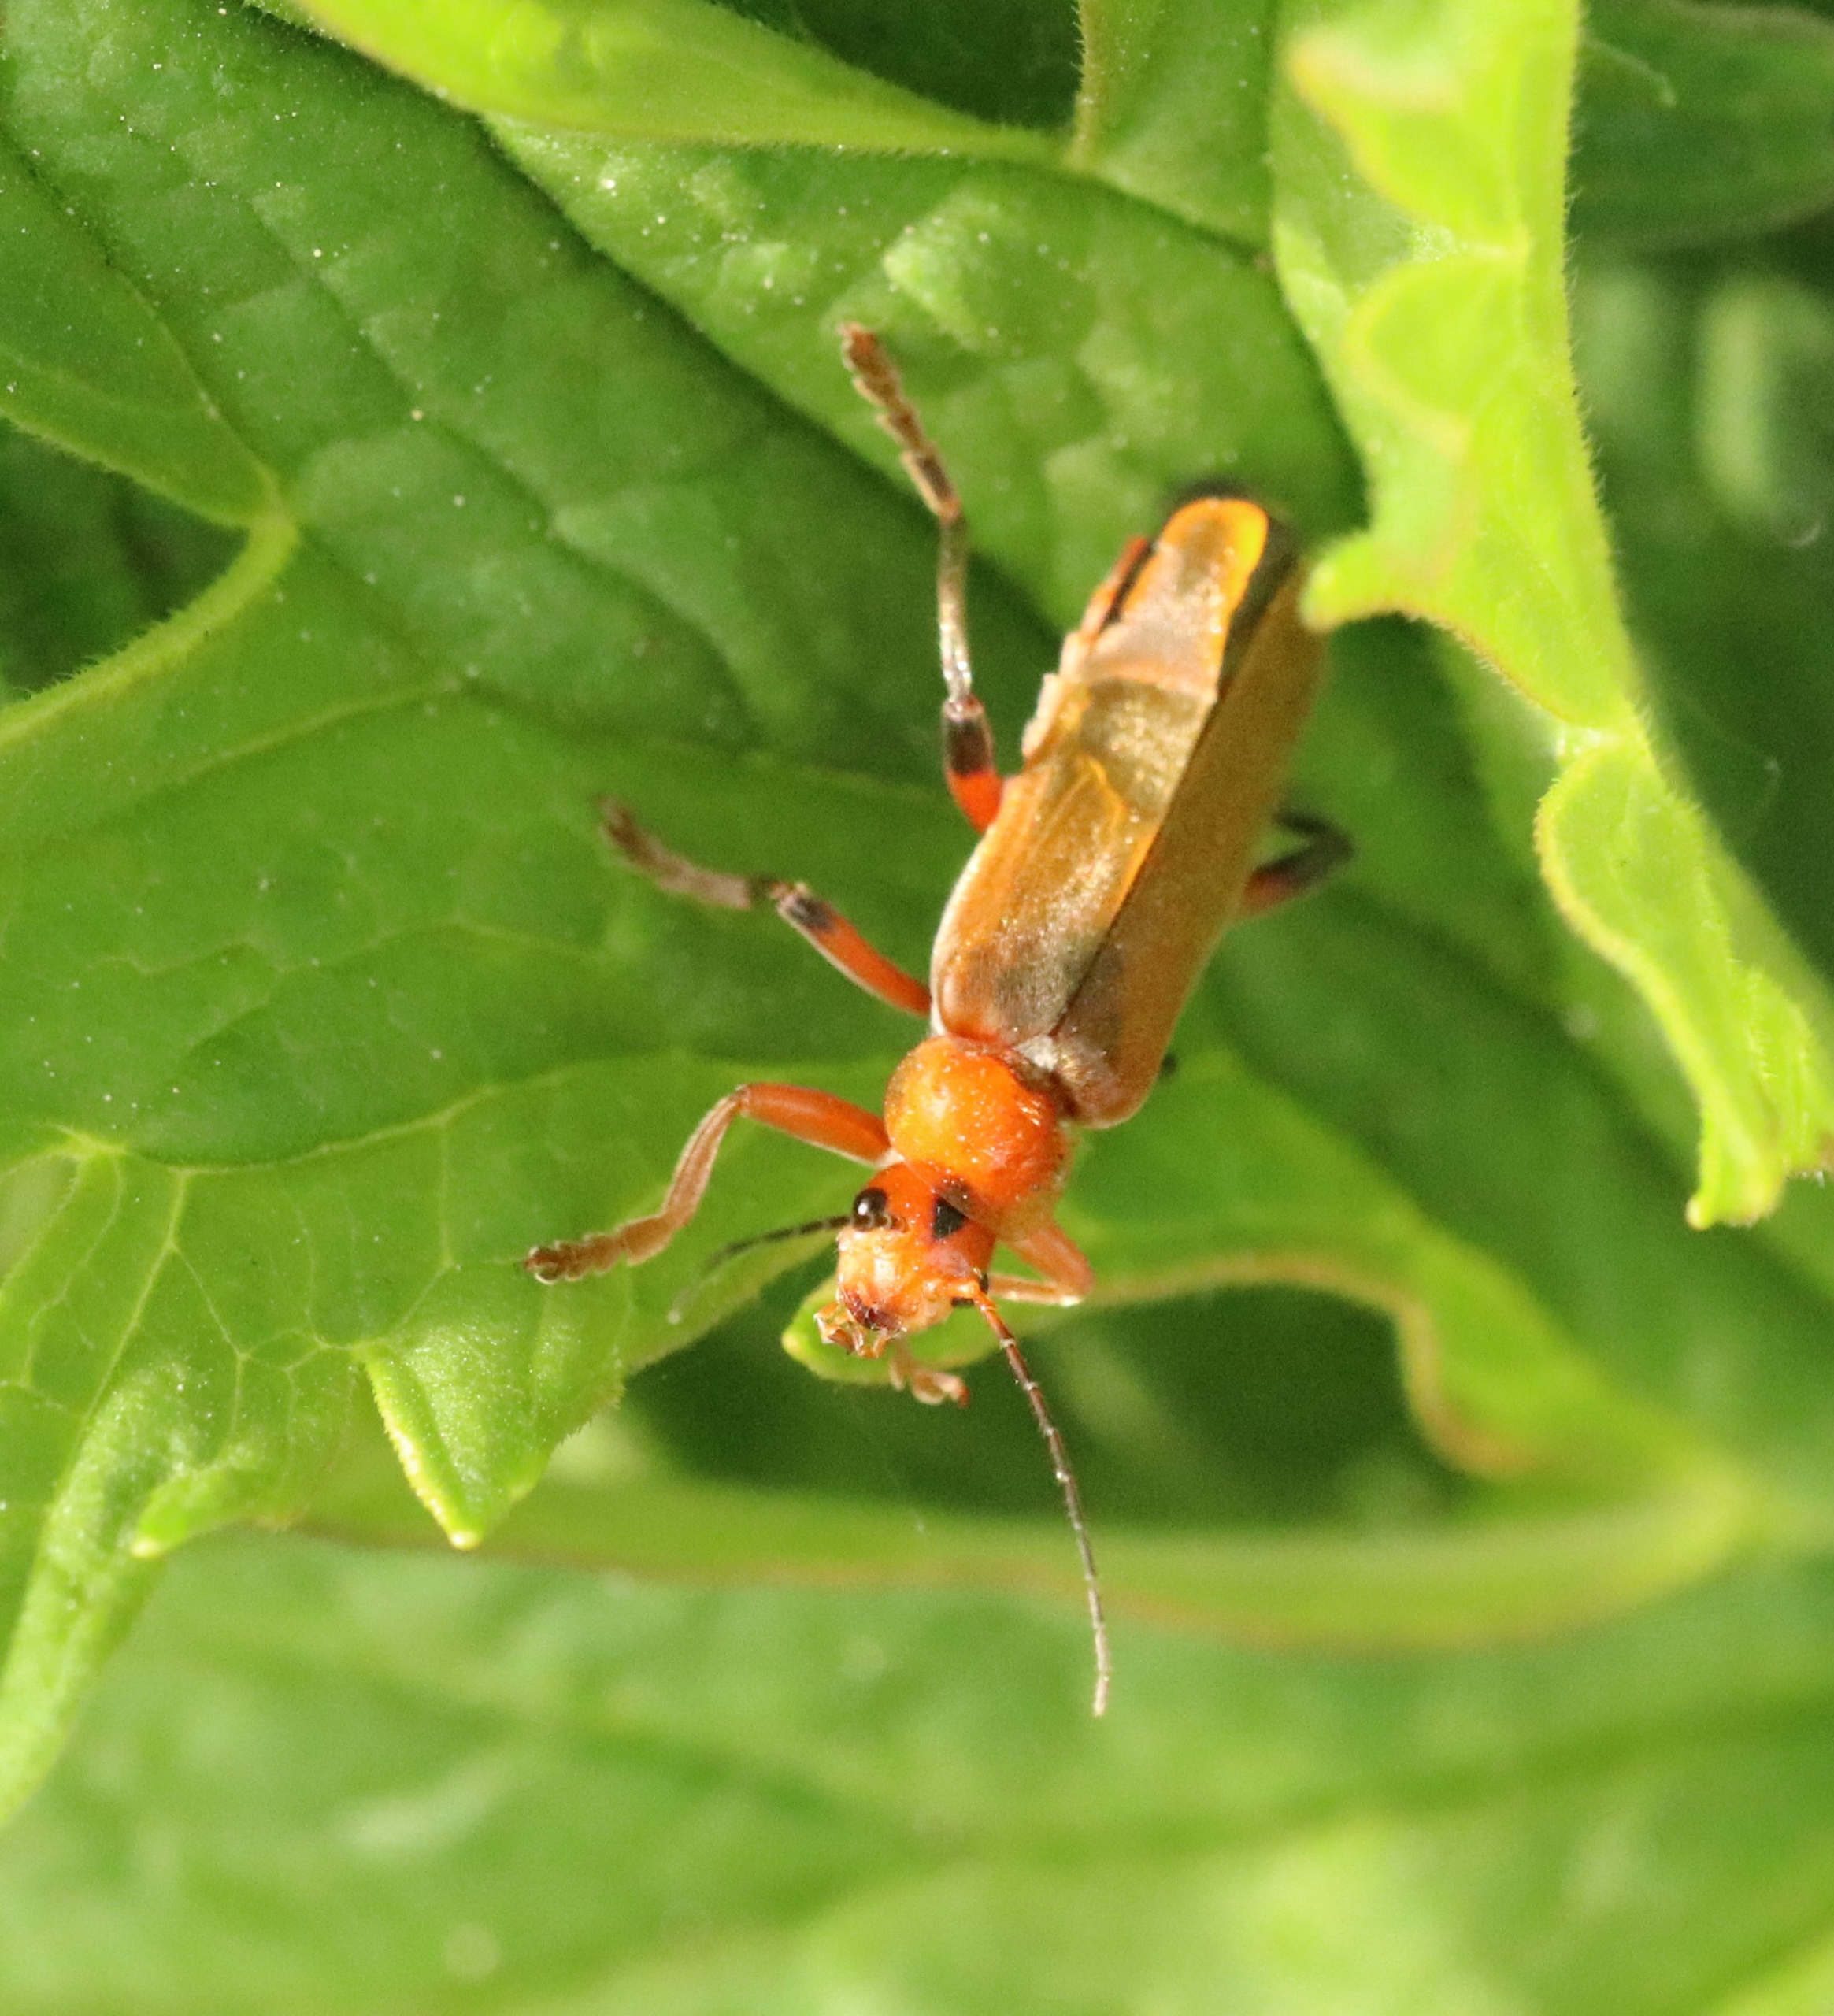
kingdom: Animalia
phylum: Arthropoda
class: Insecta
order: Coleoptera
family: Cantharidae
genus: Cantharis
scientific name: Cantharis livida
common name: Gul blødvinge
